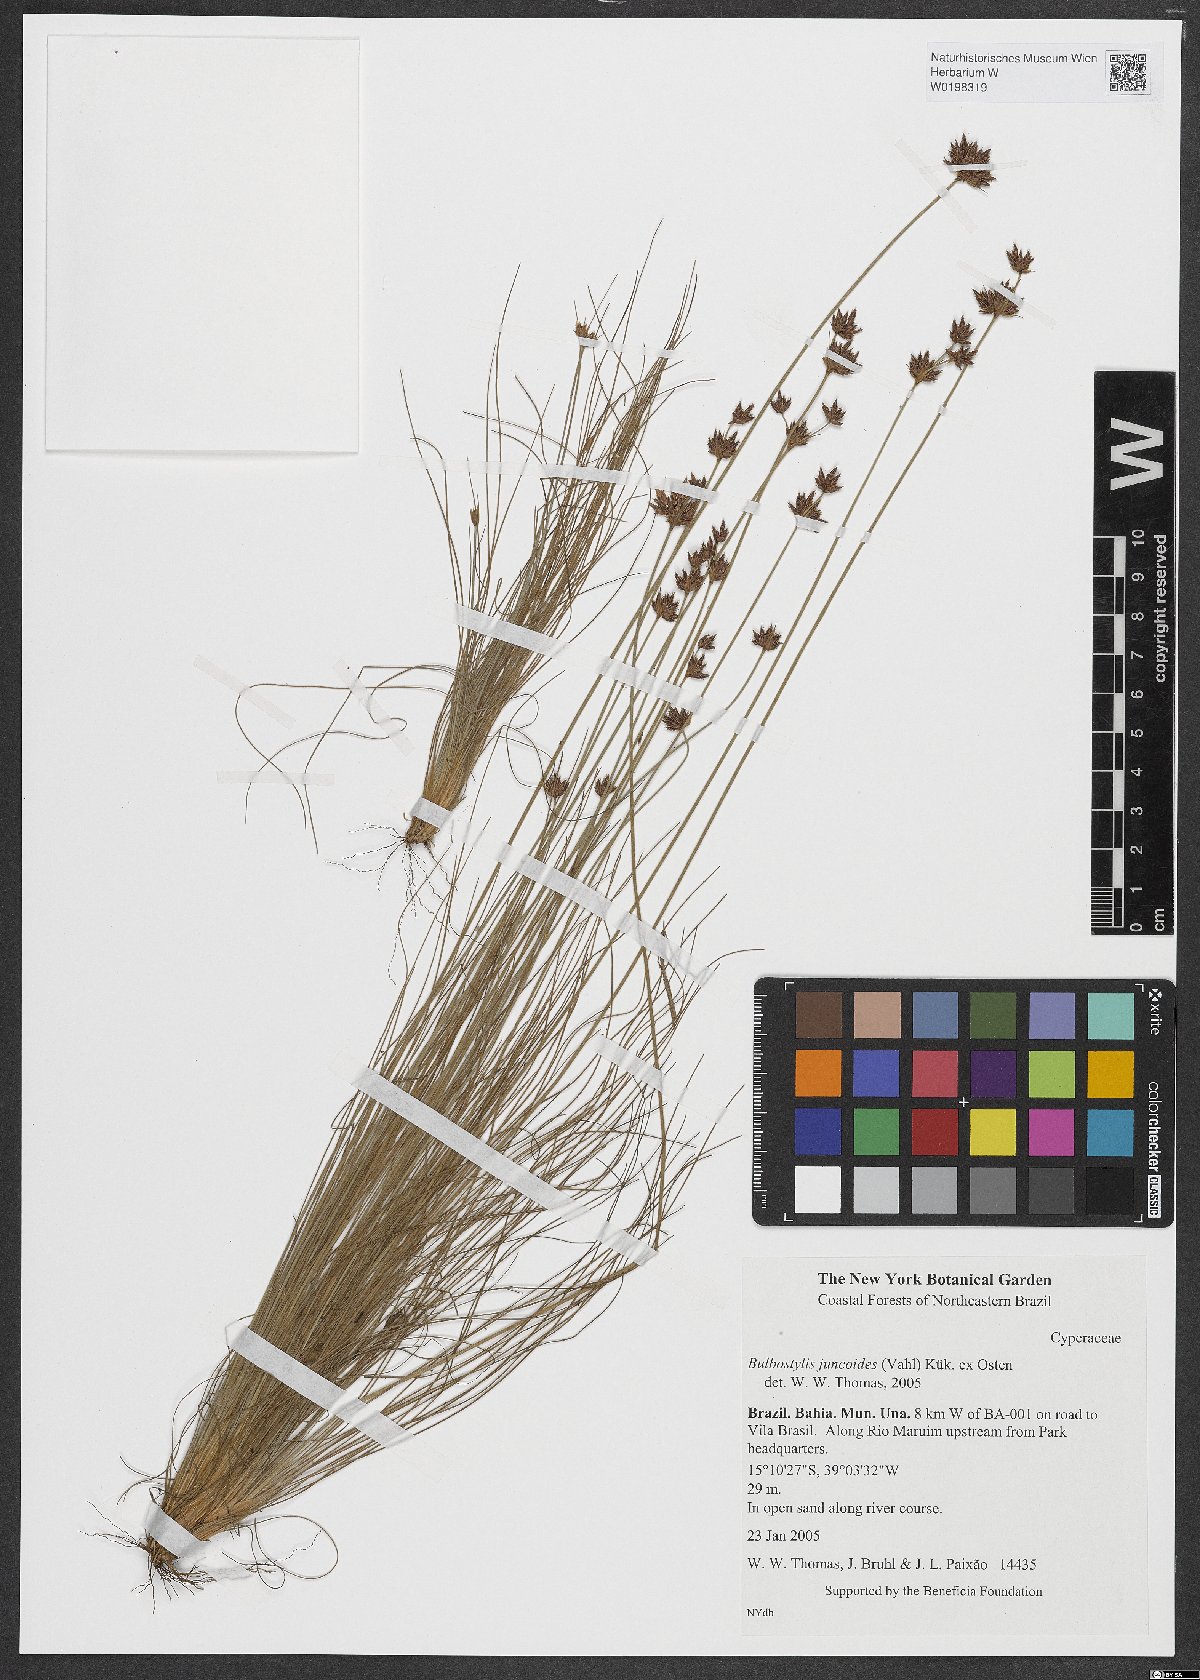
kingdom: Plantae
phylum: Tracheophyta
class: Liliopsida
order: Poales
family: Cyperaceae
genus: Bulbostylis
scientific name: Bulbostylis juncoides
